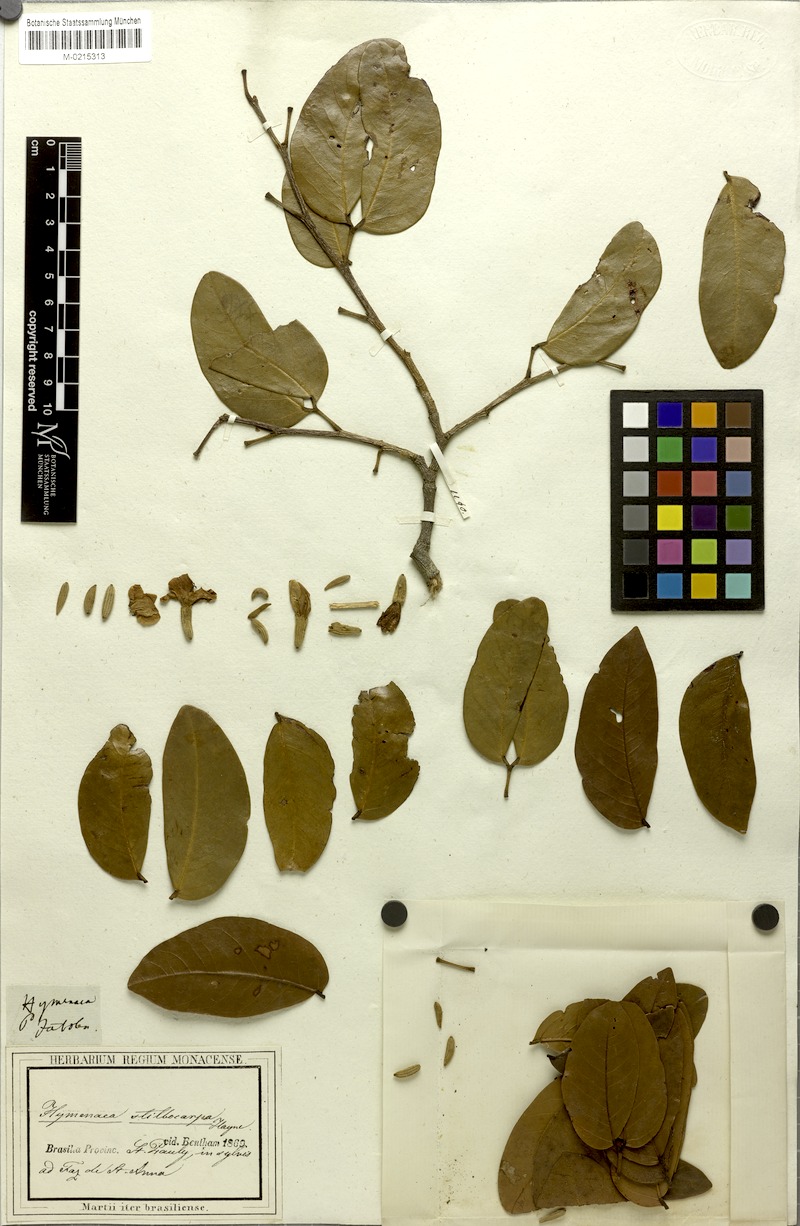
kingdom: Plantae
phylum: Tracheophyta
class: Magnoliopsida
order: Fabales
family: Fabaceae
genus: Hymenaea
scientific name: Hymenaea courbaril
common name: Brazilian copal
